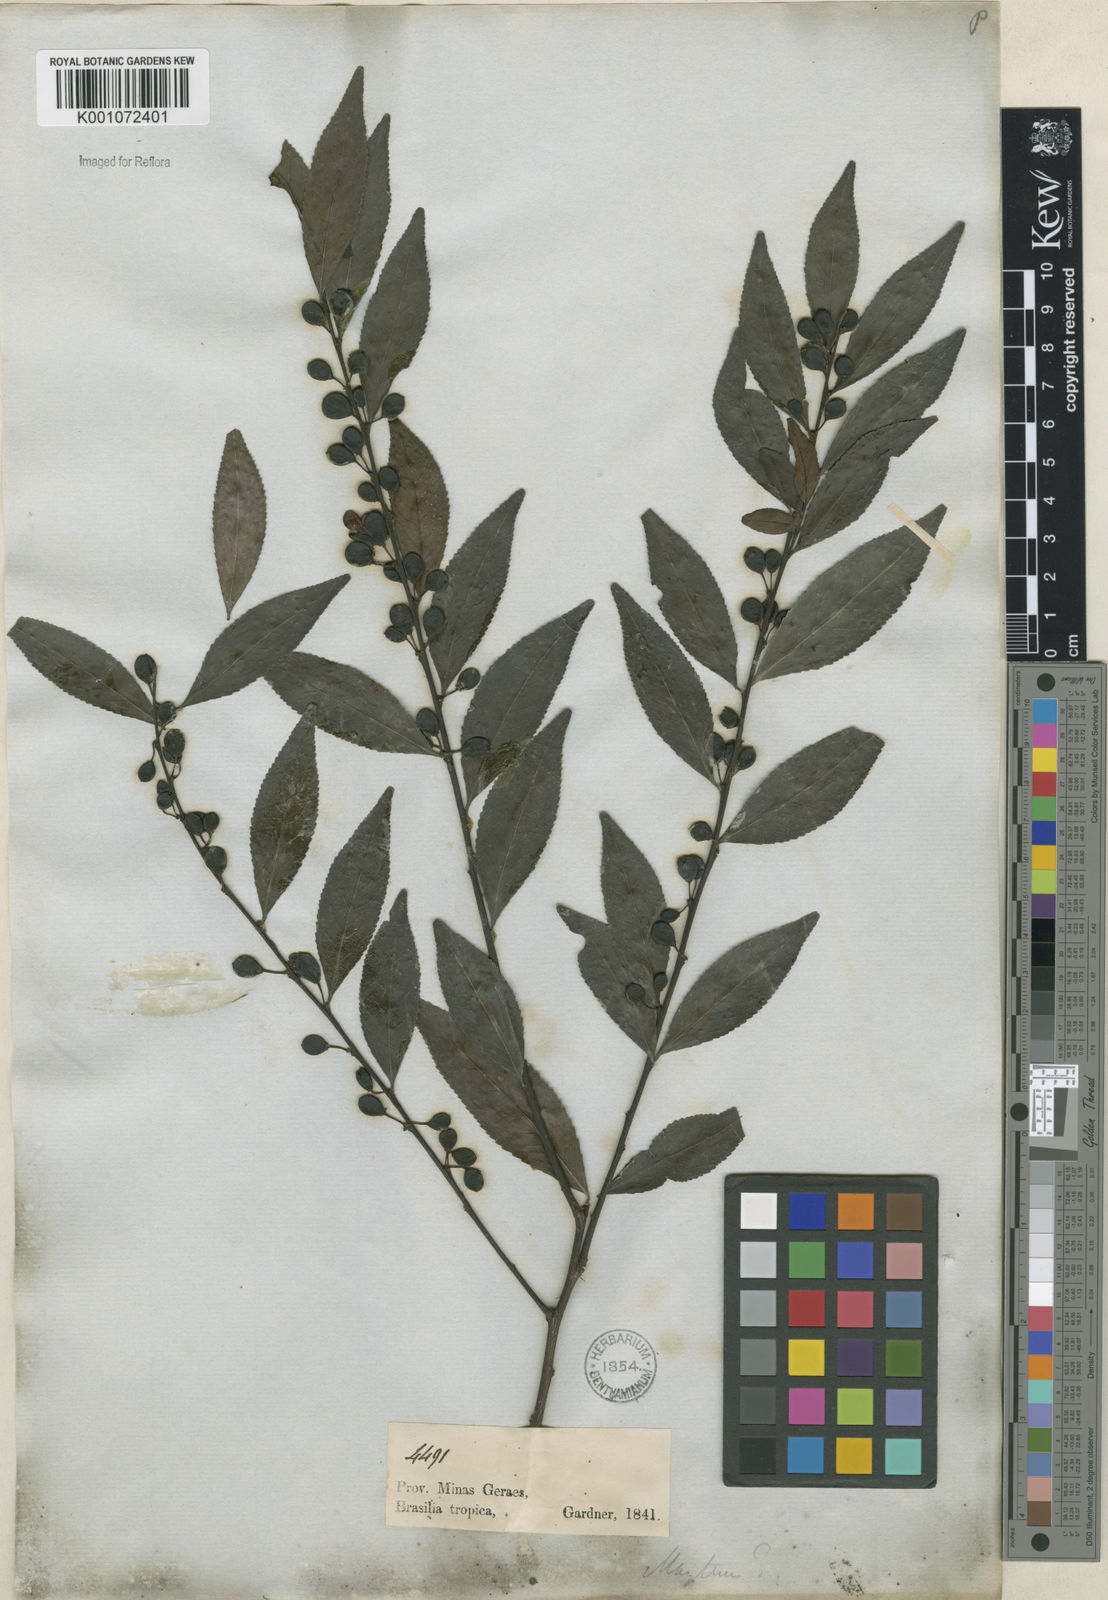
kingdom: Plantae
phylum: Tracheophyta
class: Magnoliopsida
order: Celastrales
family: Celastraceae
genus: Maytenus
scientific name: Maytenus
